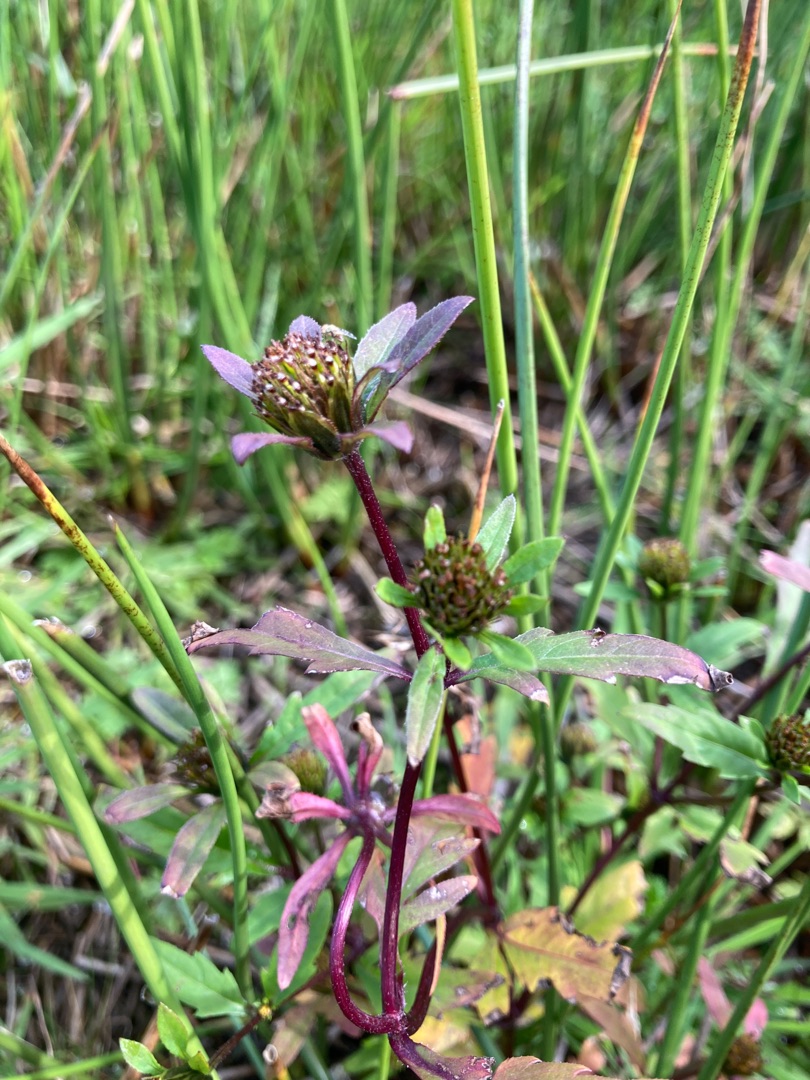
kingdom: Plantae
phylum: Tracheophyta
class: Magnoliopsida
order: Asterales
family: Asteraceae
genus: Bidens
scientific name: Bidens tripartita
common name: Fliget brøndsel
